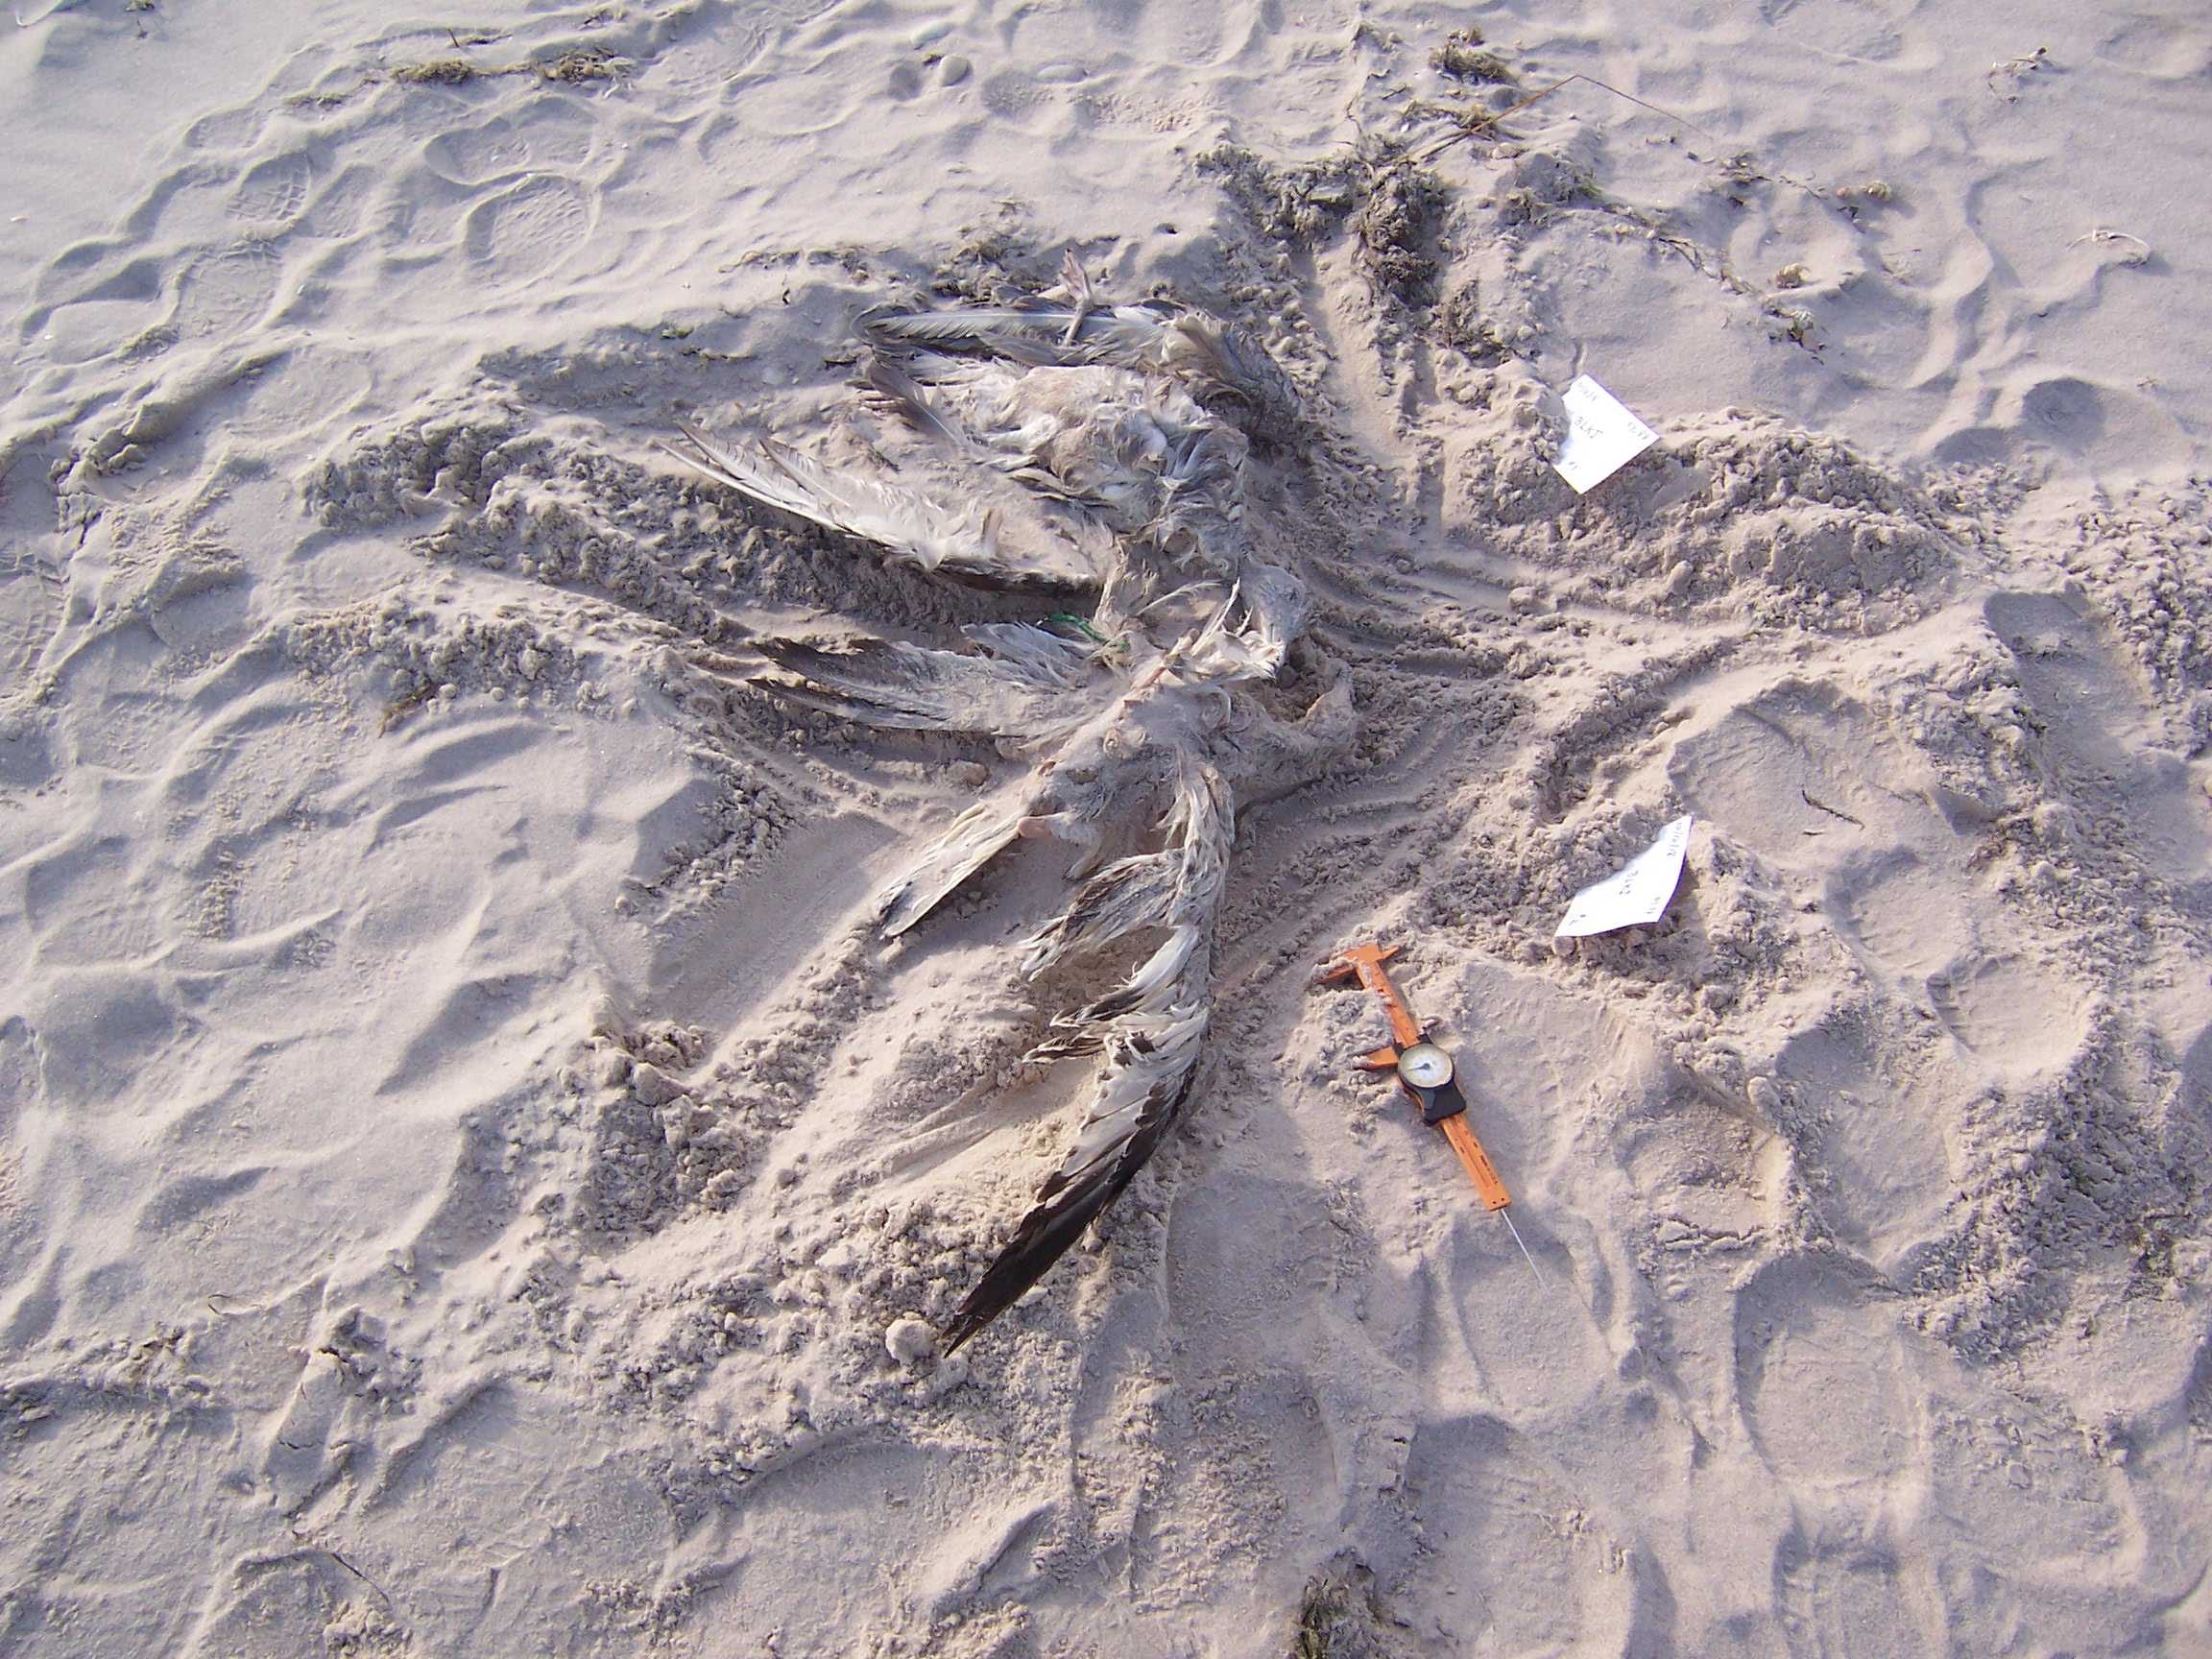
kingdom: Animalia
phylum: Chordata
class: Aves
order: Charadriiformes
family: Scolopacidae
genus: Calidris
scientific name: Calidris alba
